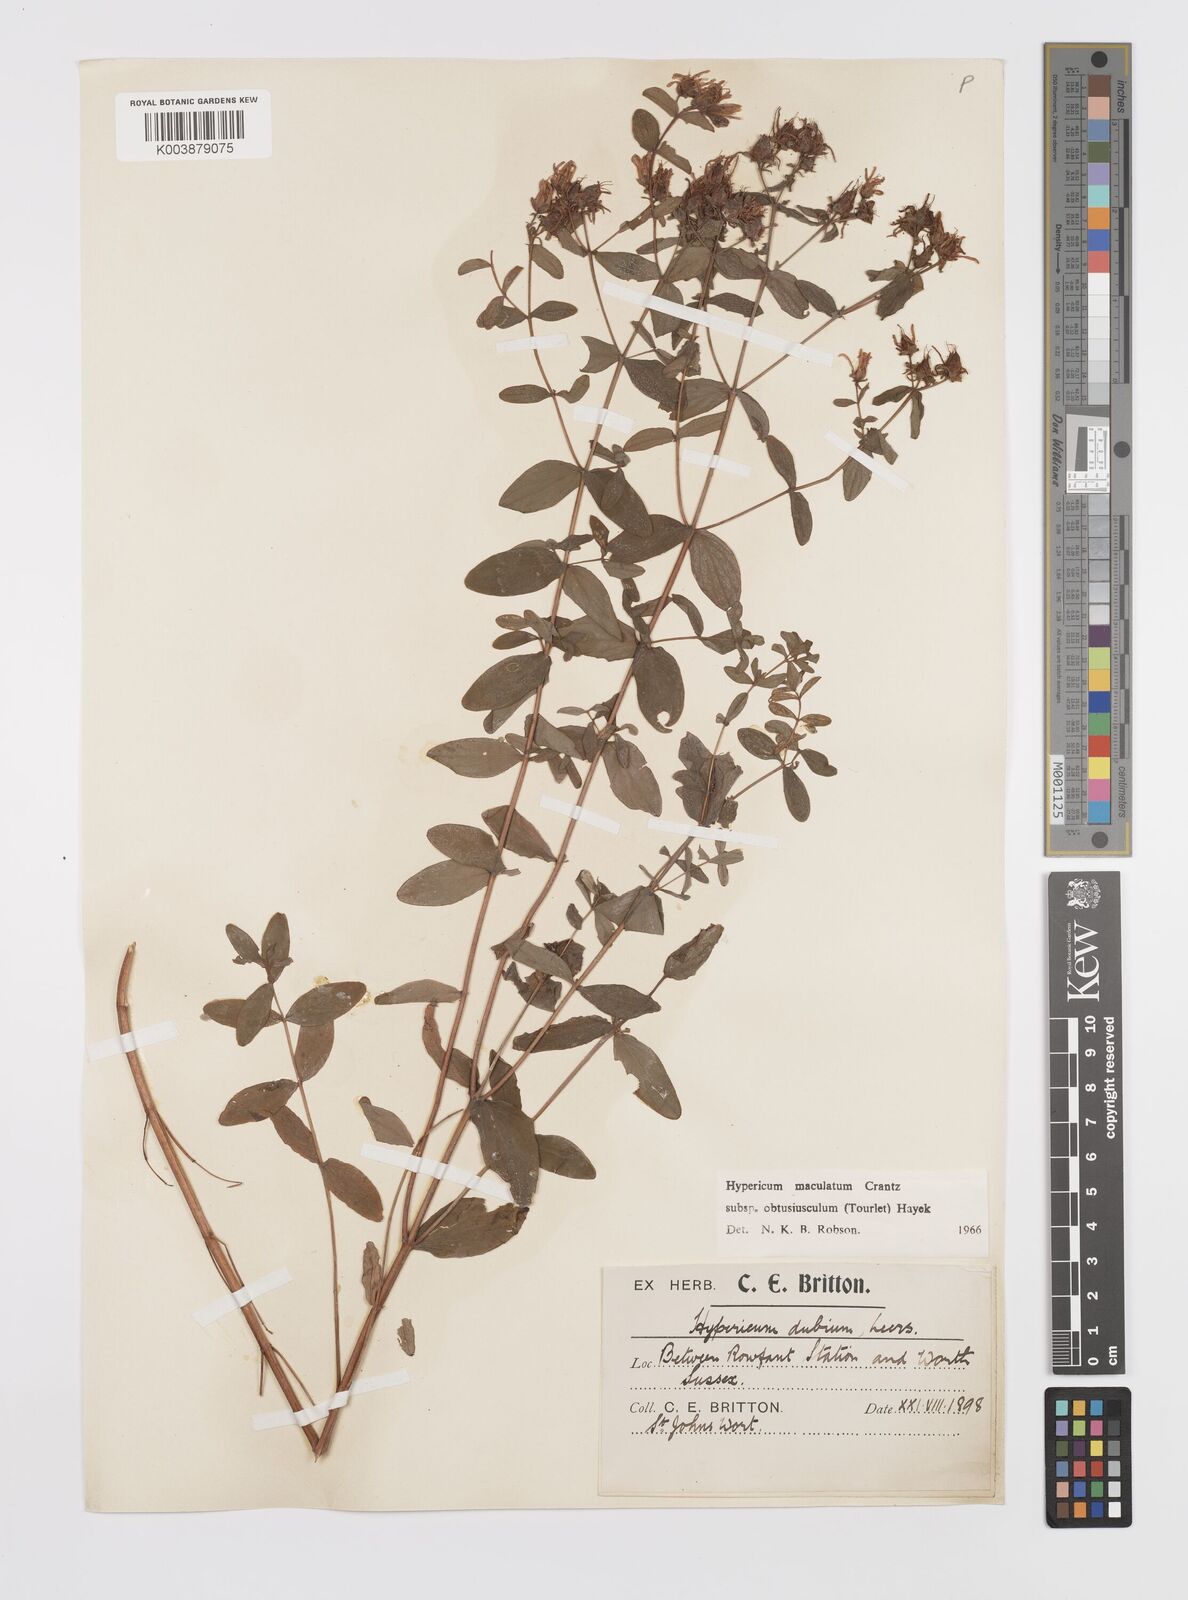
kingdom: Plantae
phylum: Tracheophyta
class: Magnoliopsida
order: Malpighiales
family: Hypericaceae
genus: Hypericum
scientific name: Hypericum dubium
